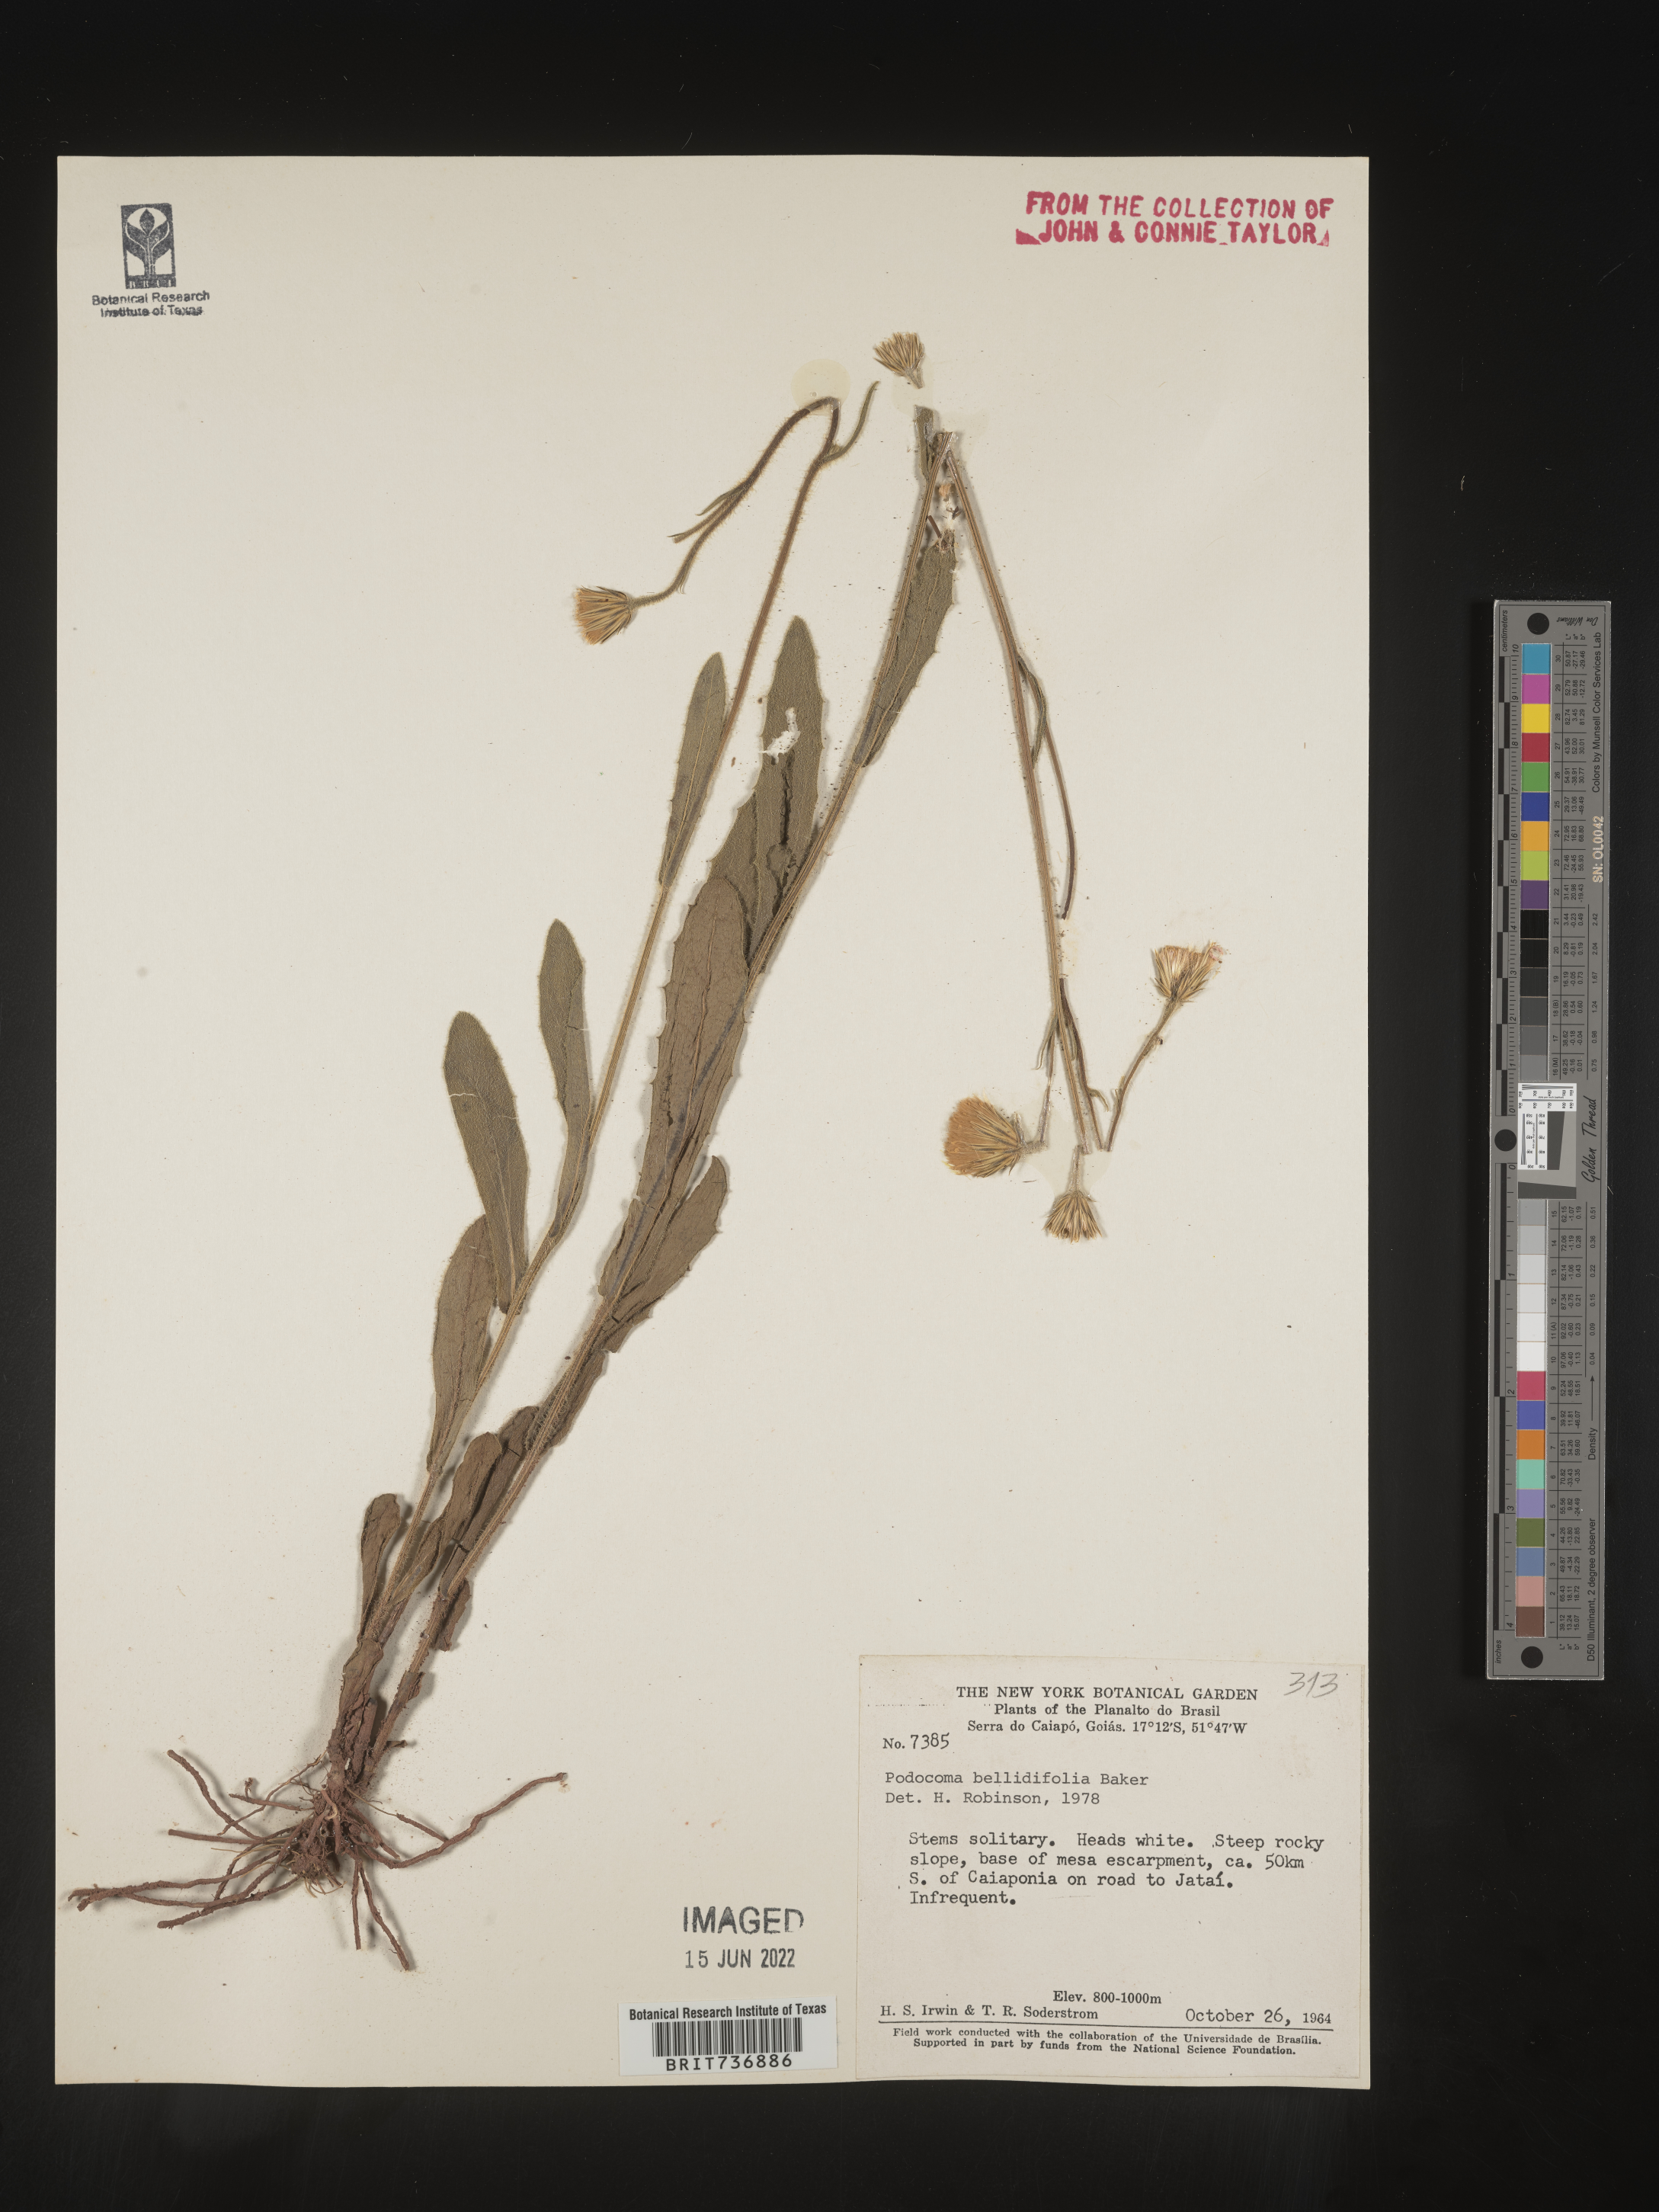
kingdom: Plantae
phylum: Tracheophyta
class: Magnoliopsida
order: Asterales
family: Asteraceae
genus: Podocoma
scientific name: Podocoma
